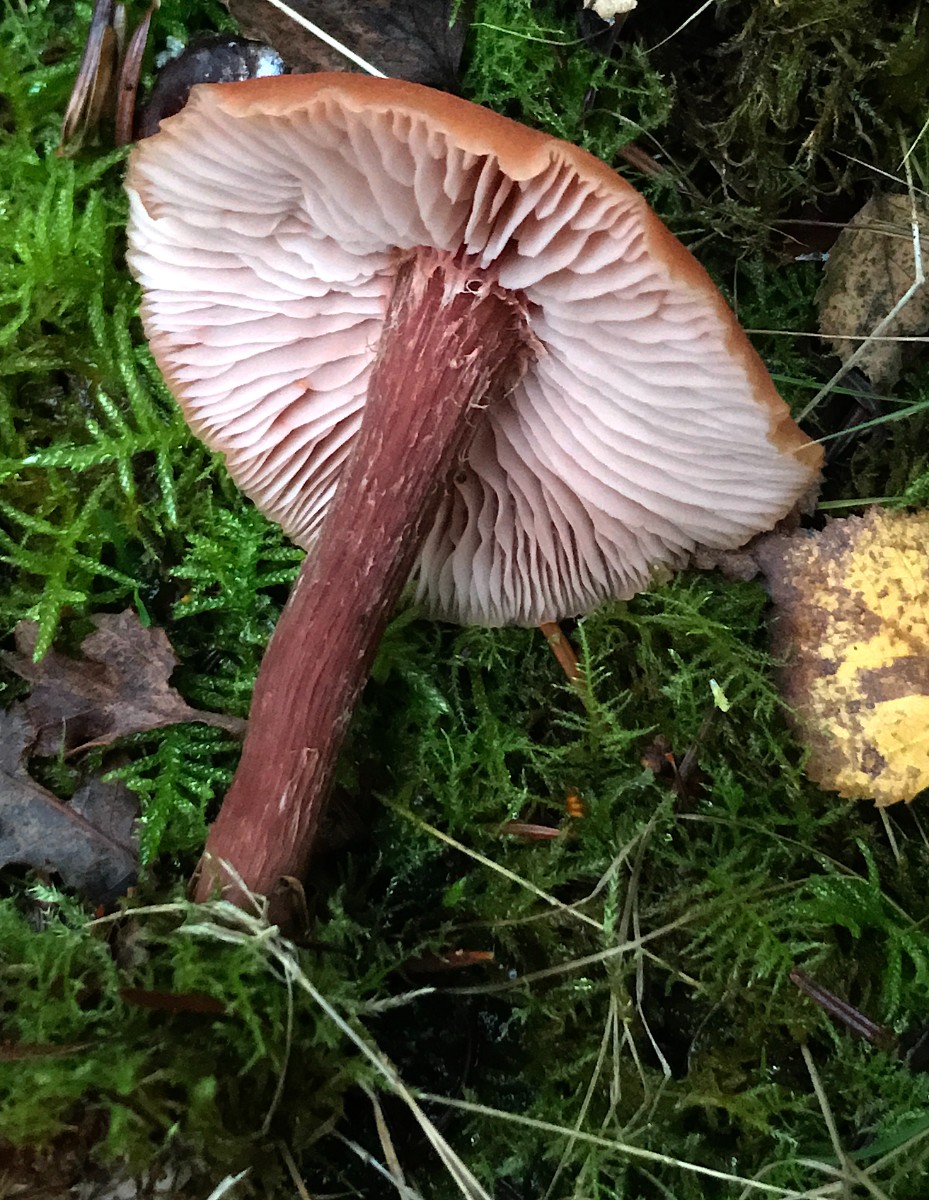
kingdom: Fungi
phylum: Basidiomycota
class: Agaricomycetes
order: Agaricales
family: Hydnangiaceae
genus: Laccaria
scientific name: Laccaria proxima
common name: stor ametysthat
